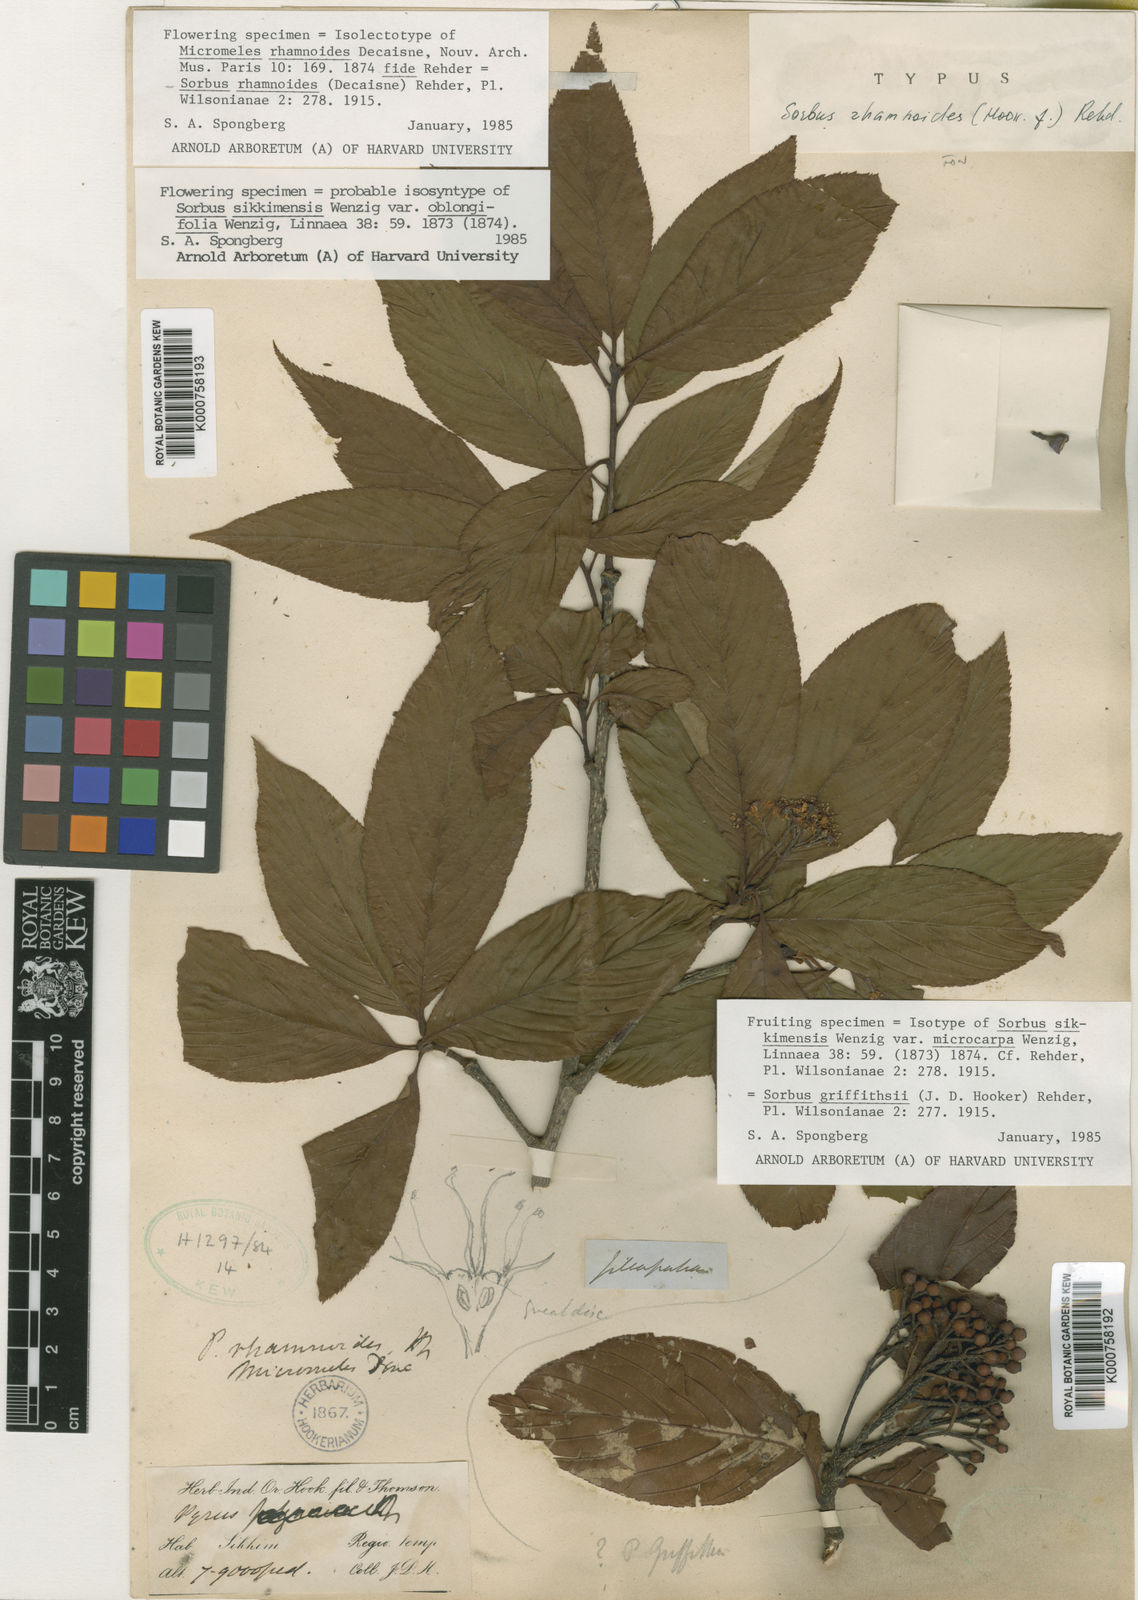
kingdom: Plantae
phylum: Tracheophyta
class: Magnoliopsida
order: Rosales
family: Rosaceae
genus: Micromeles
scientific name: Micromeles rhamnoides
